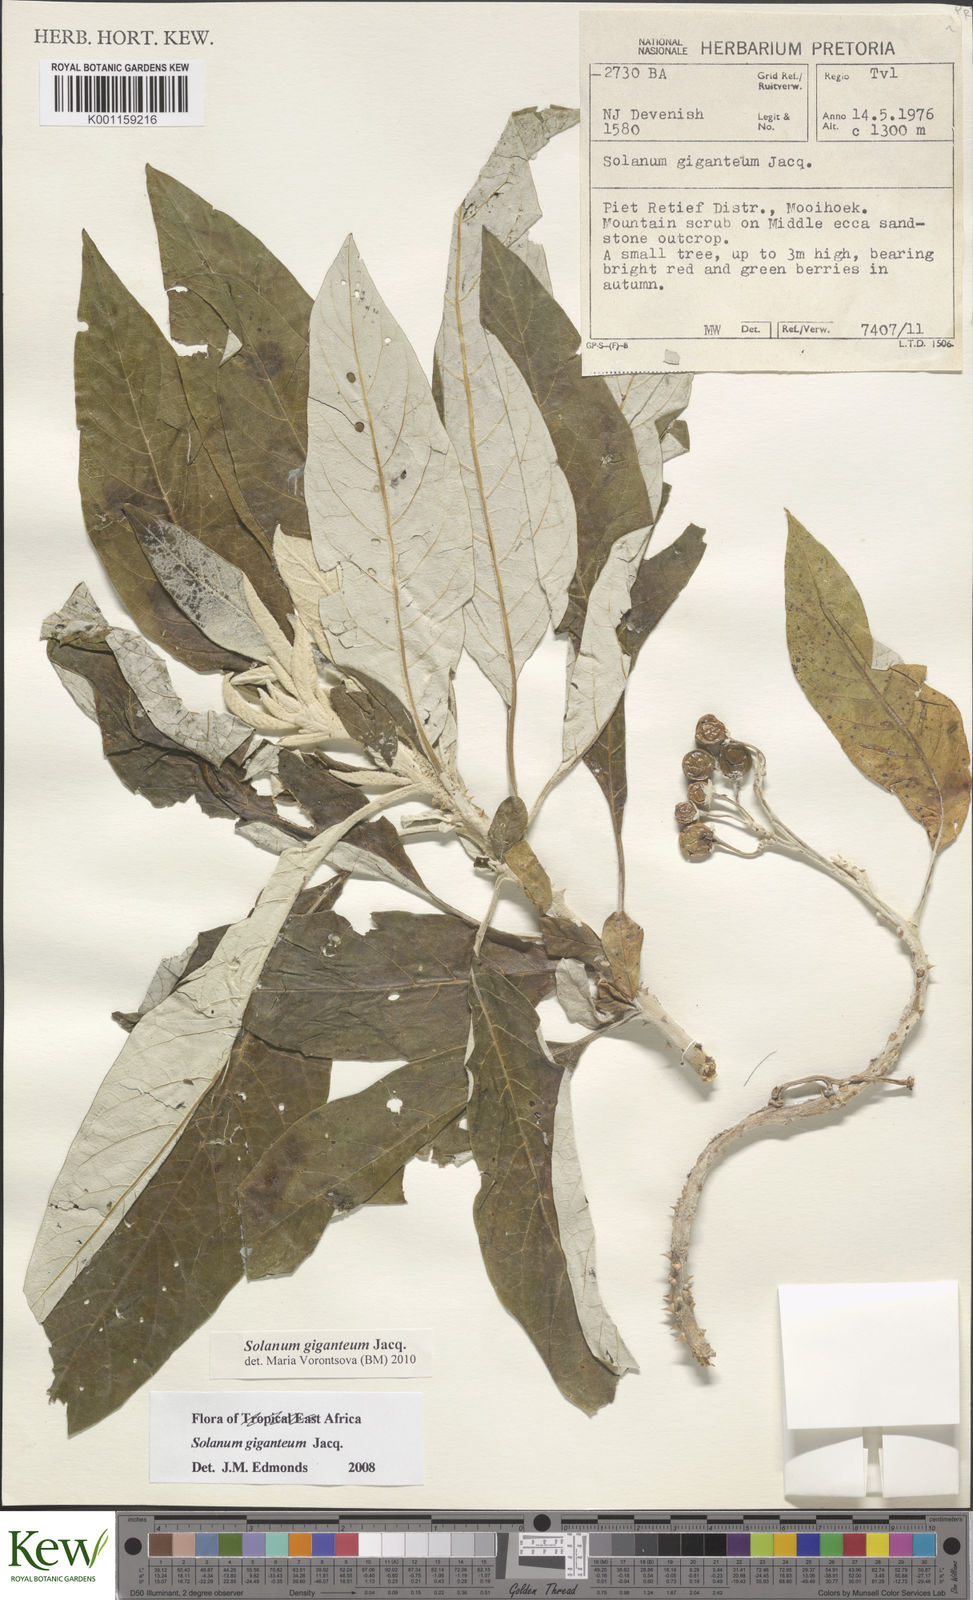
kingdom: Plantae
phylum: Tracheophyta
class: Magnoliopsida
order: Solanales
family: Solanaceae
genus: Solanum
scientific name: Solanum giganteum
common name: Healing-leaf-tree
